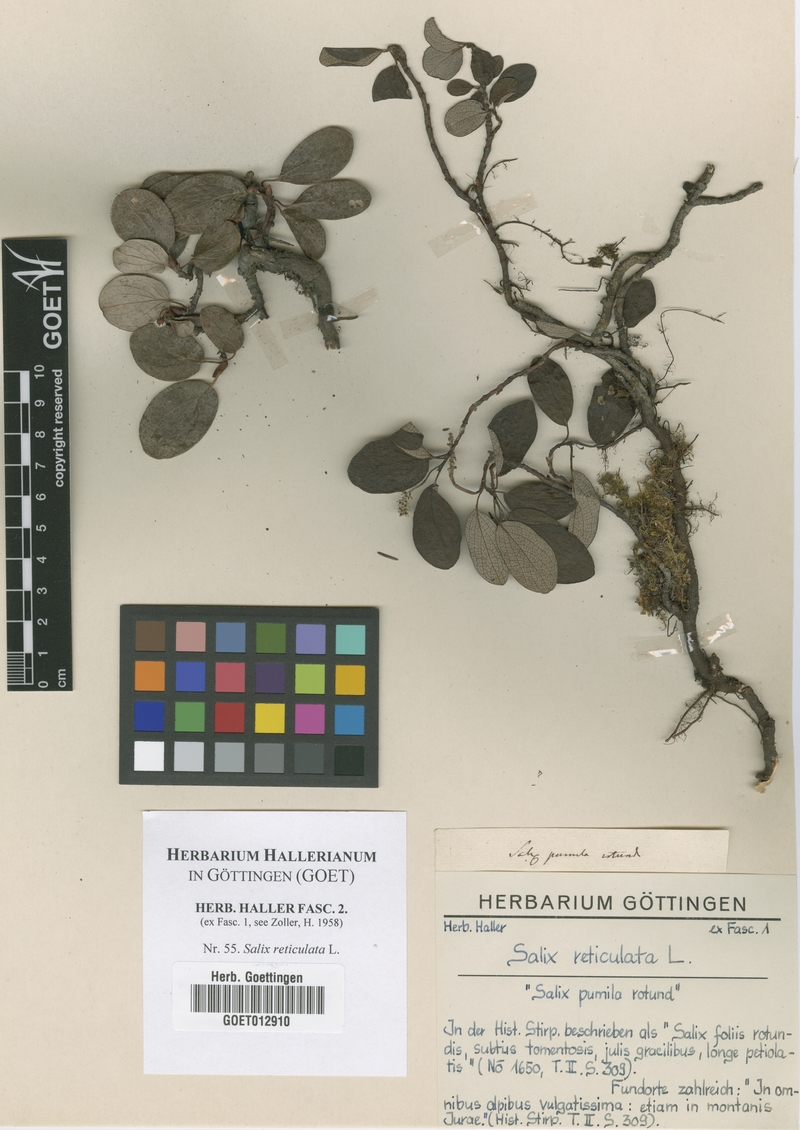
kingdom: Plantae
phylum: Tracheophyta
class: Magnoliopsida
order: Malpighiales
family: Salicaceae
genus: Salix
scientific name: Salix reticulata
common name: Net-leaved willow
